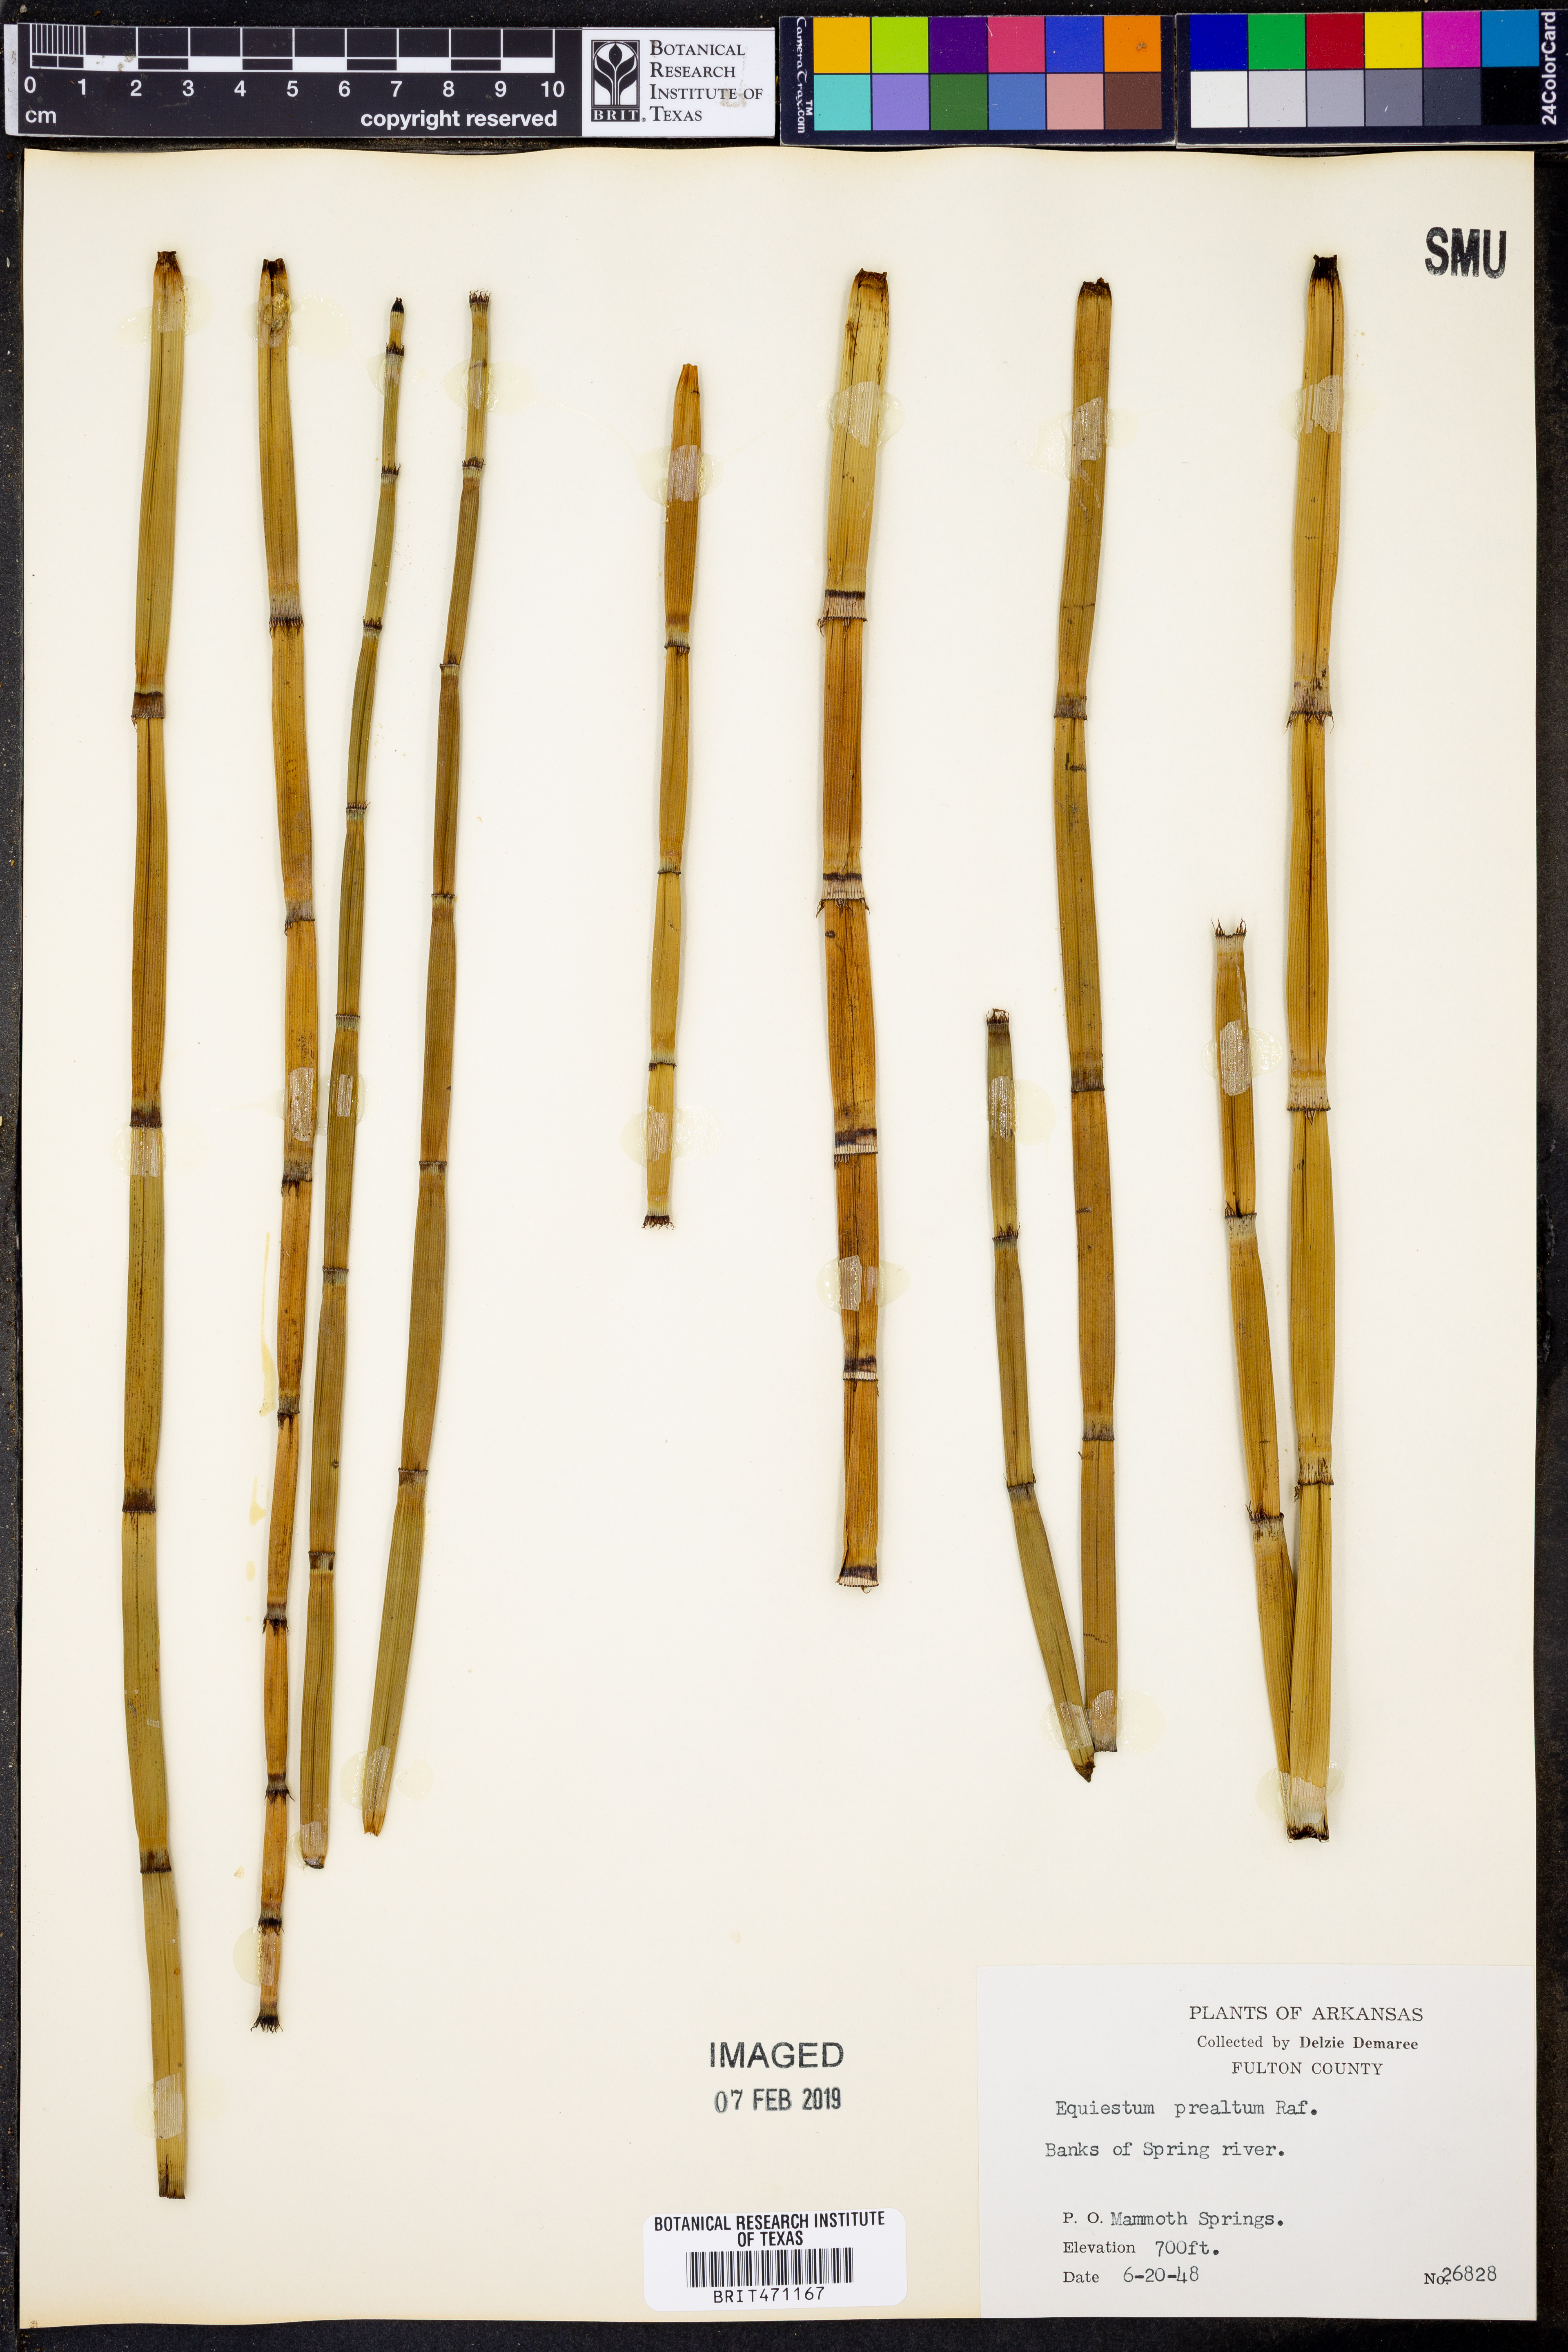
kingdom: Plantae
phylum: Tracheophyta
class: Polypodiopsida
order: Equisetales
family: Equisetaceae
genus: Equisetum
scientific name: Equisetum praealtum
